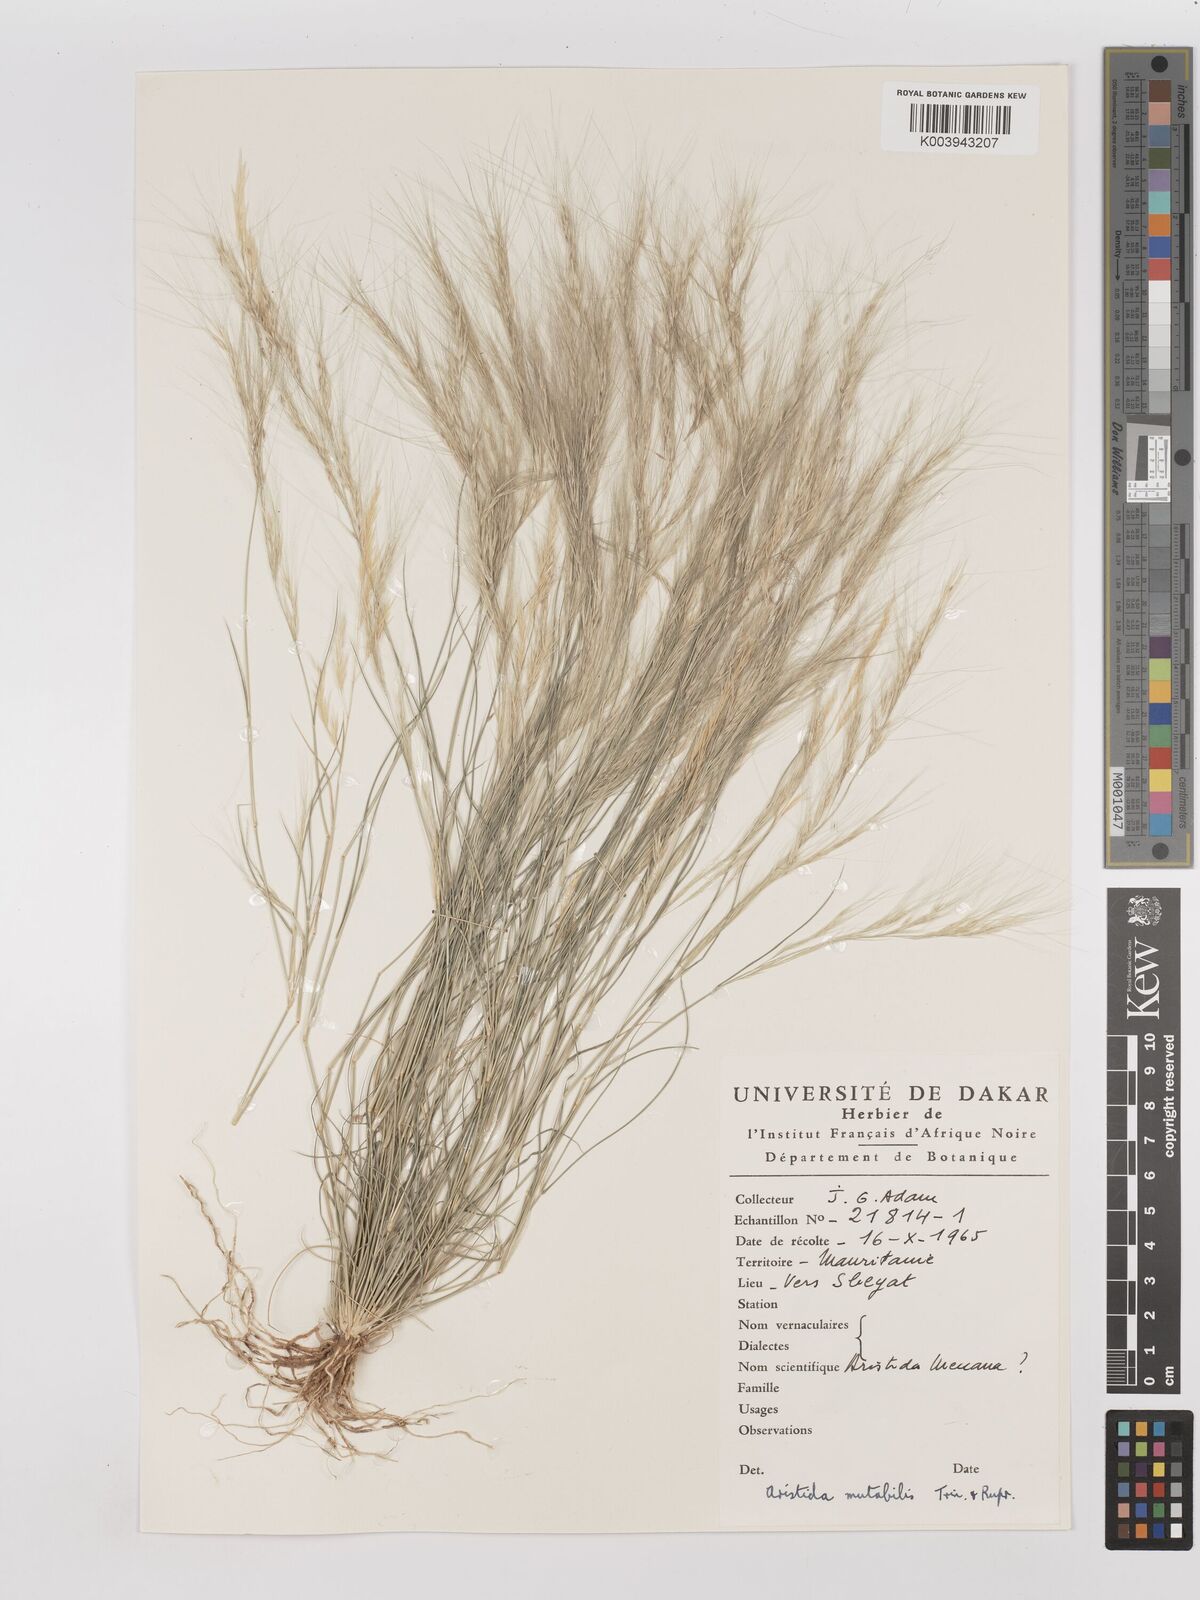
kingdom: Plantae
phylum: Tracheophyta
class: Liliopsida
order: Poales
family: Poaceae
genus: Aristida
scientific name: Aristida mutabilis
